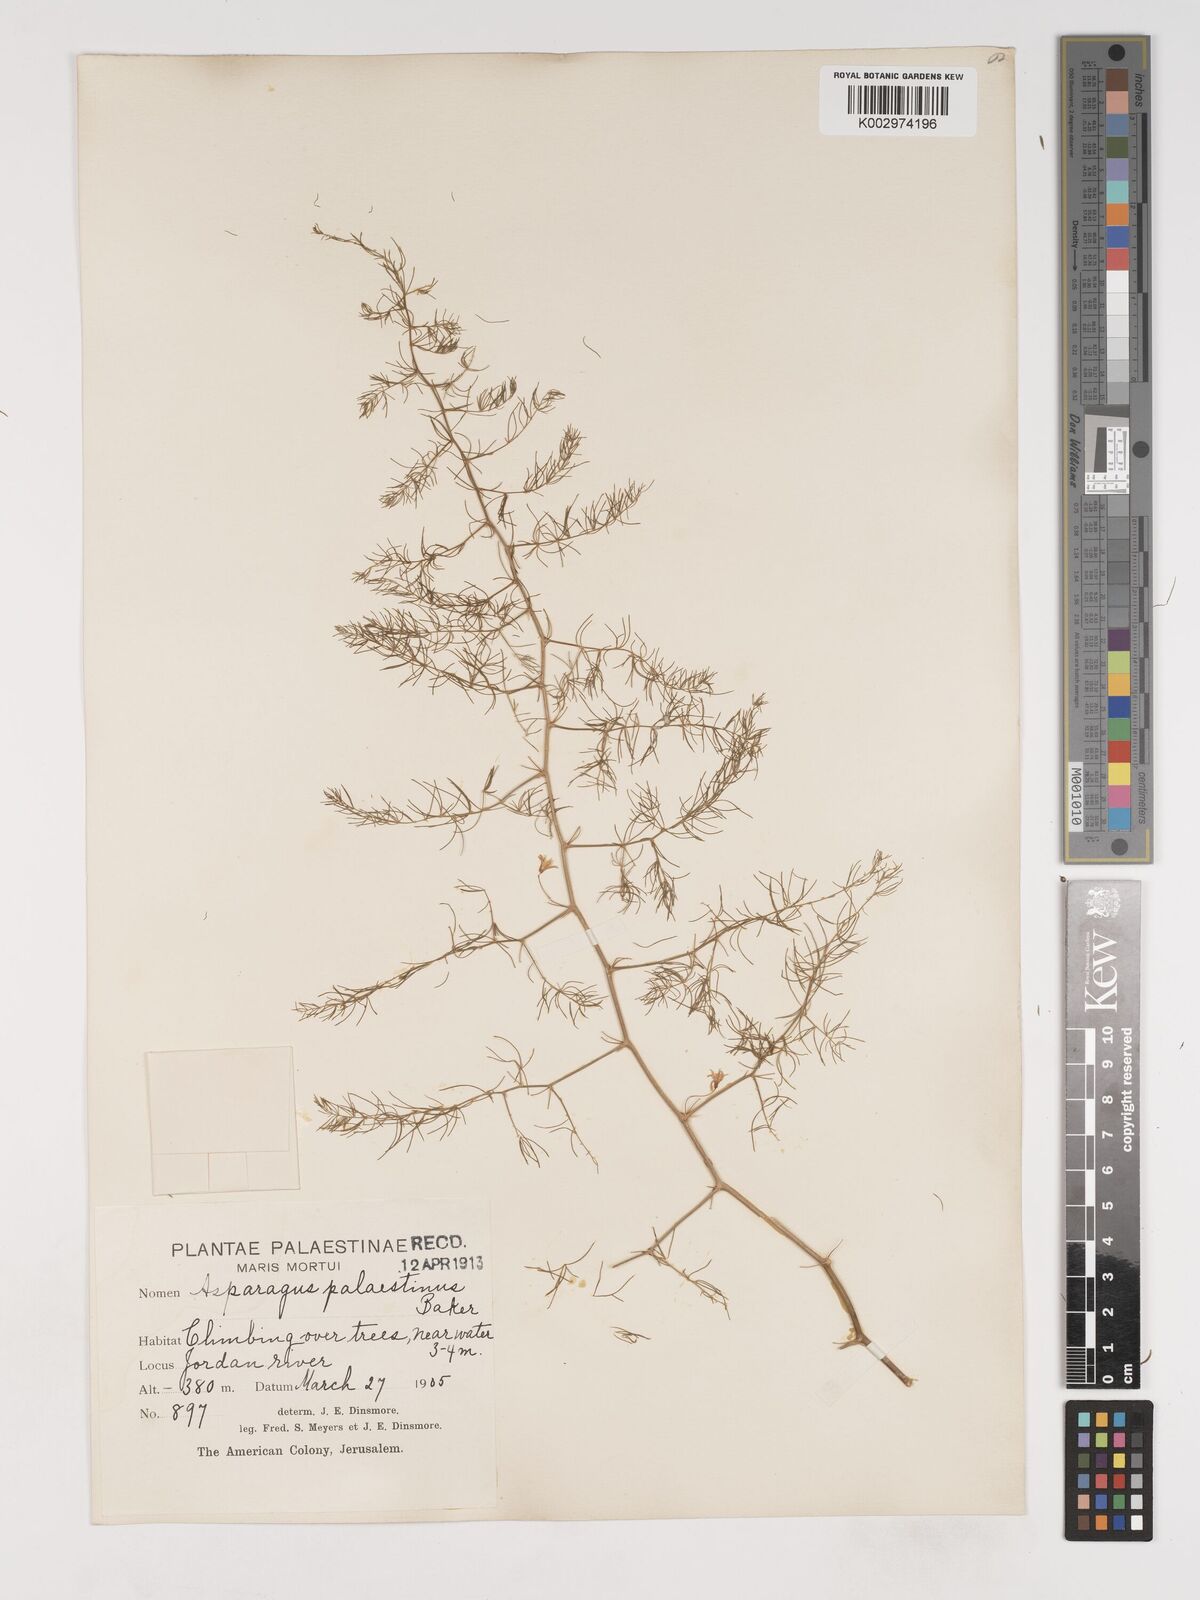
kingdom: Plantae
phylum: Tracheophyta
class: Liliopsida
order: Asparagales
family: Asparagaceae
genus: Asparagus
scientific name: Asparagus palaestinus
